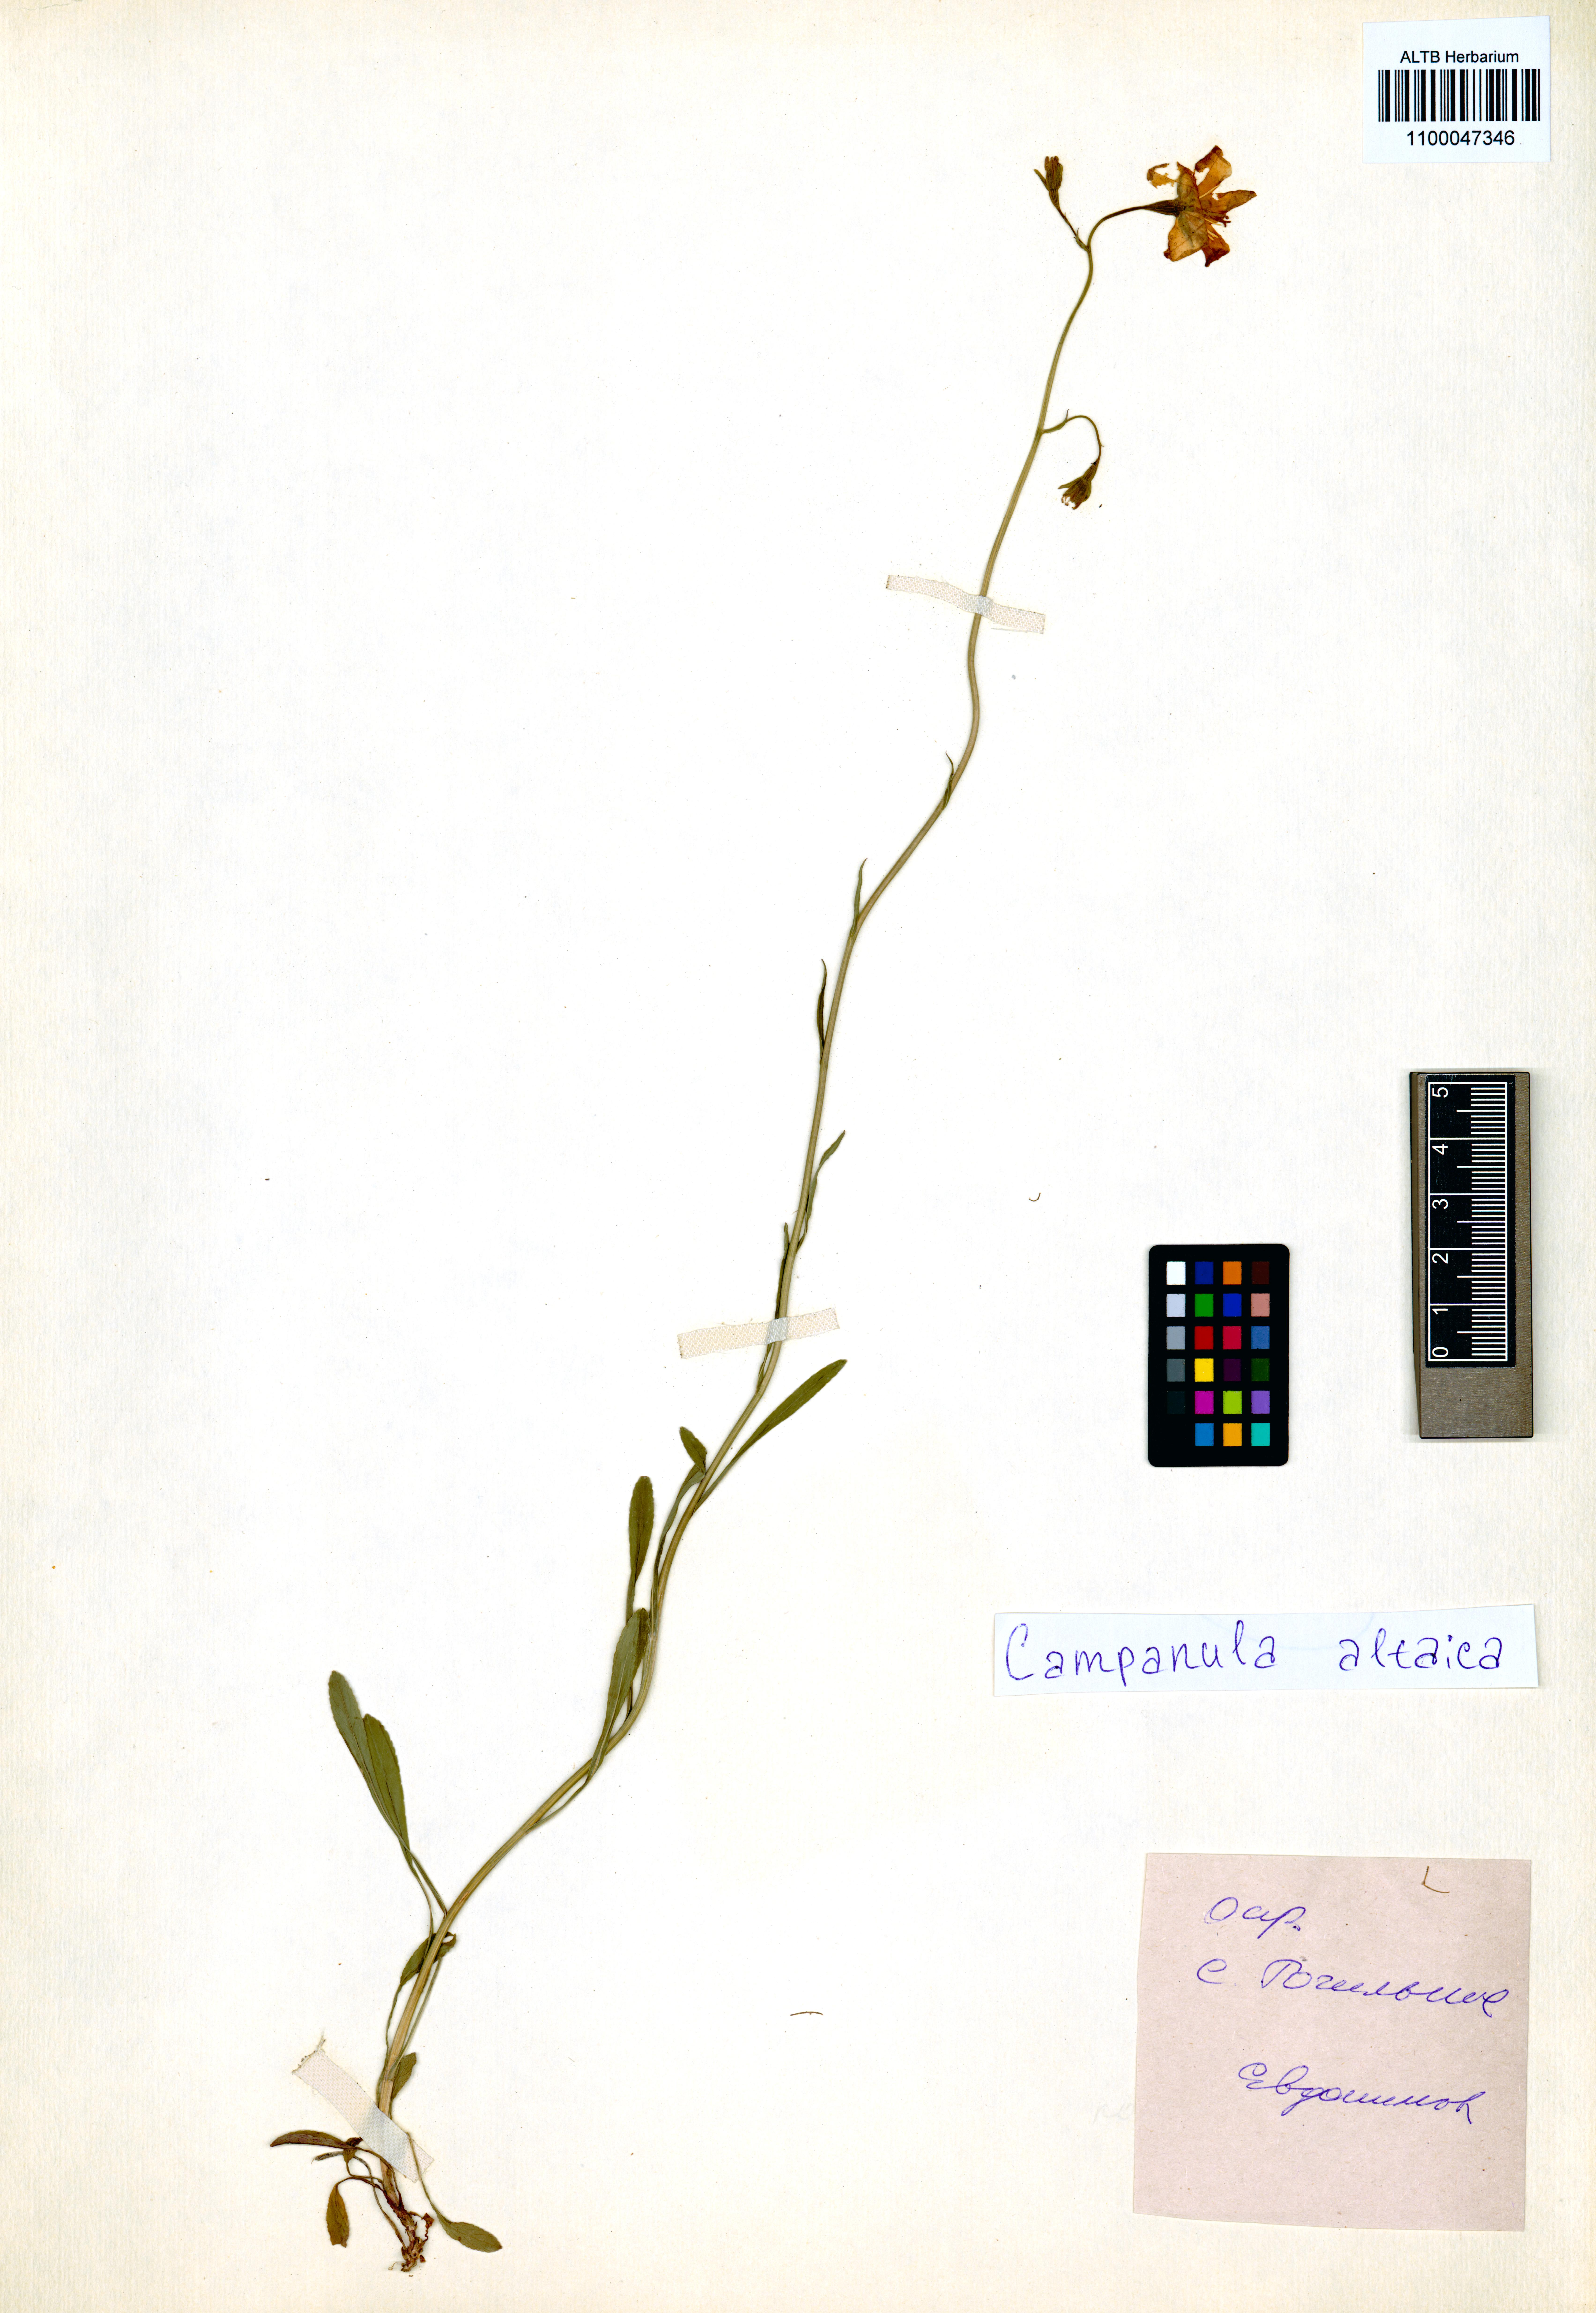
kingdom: Plantae
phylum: Tracheophyta
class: Magnoliopsida
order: Asterales
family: Campanulaceae
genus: Campanula
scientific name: Campanula stevenii
